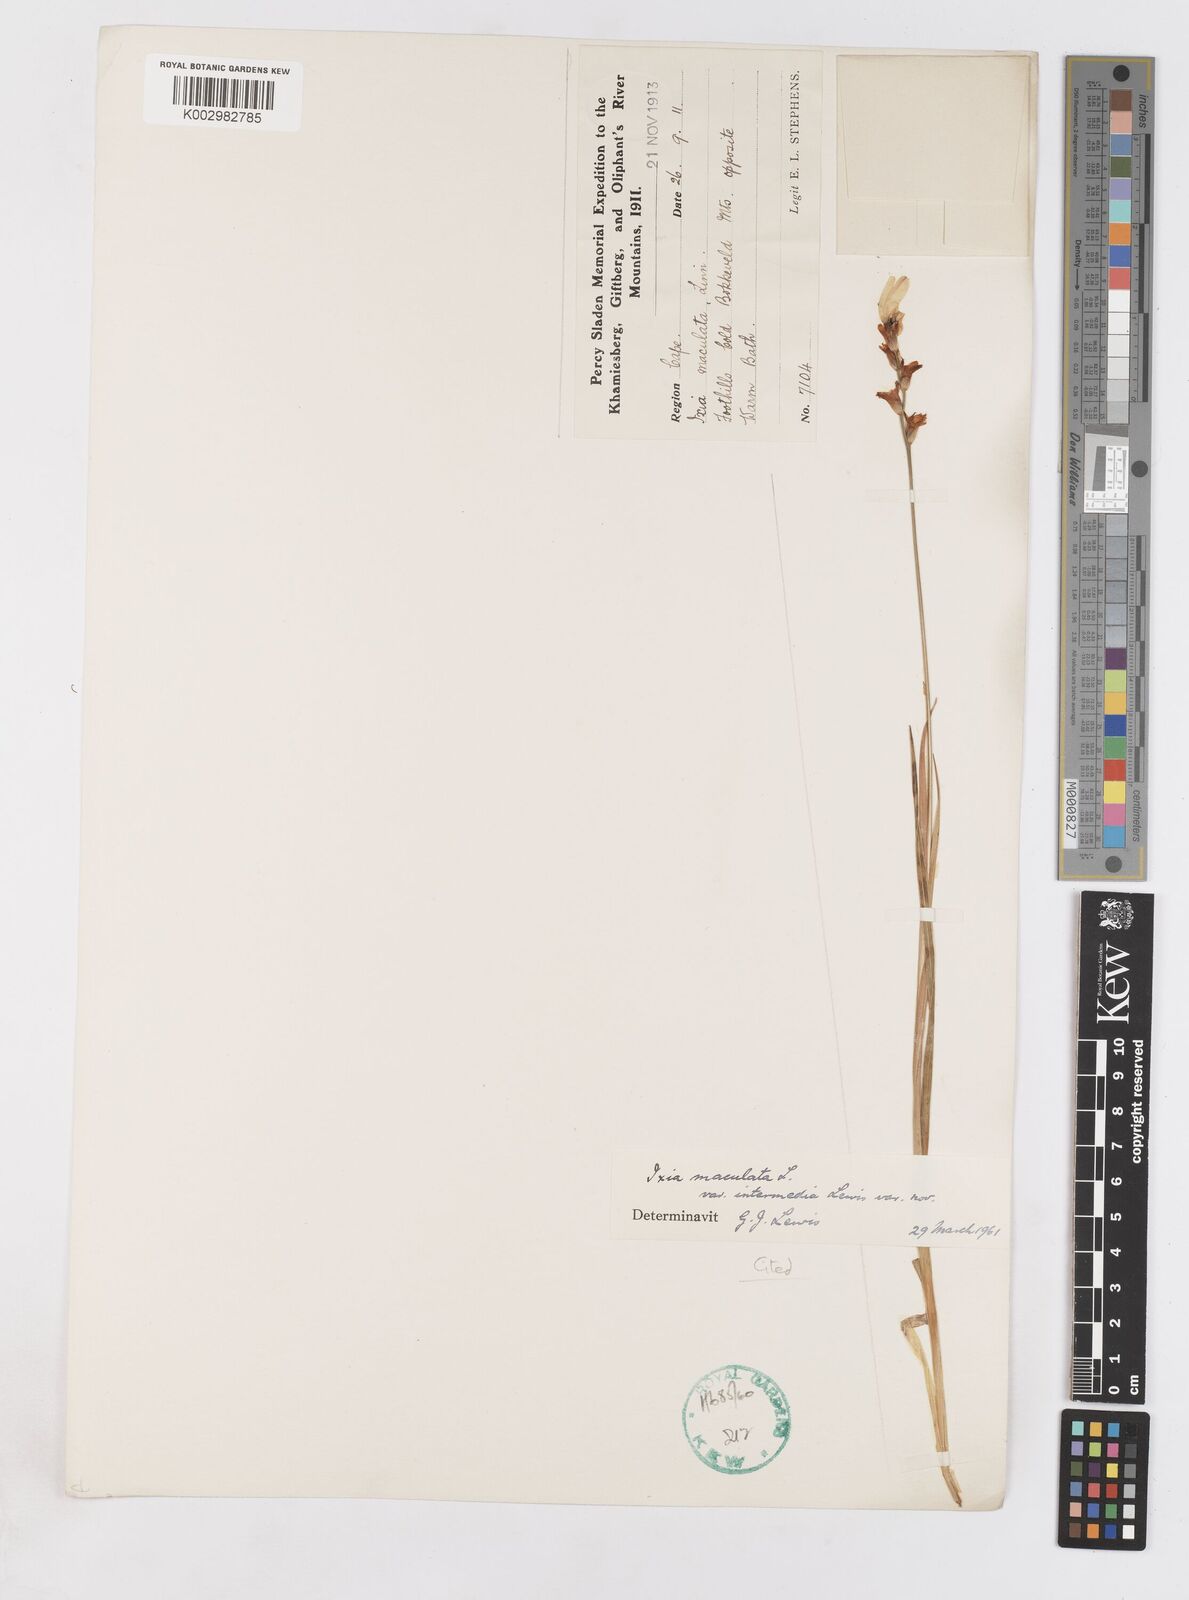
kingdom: Plantae
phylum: Tracheophyta
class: Liliopsida
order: Asparagales
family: Iridaceae
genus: Ixia
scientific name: Ixia maculata
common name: Spotted african cornlily
